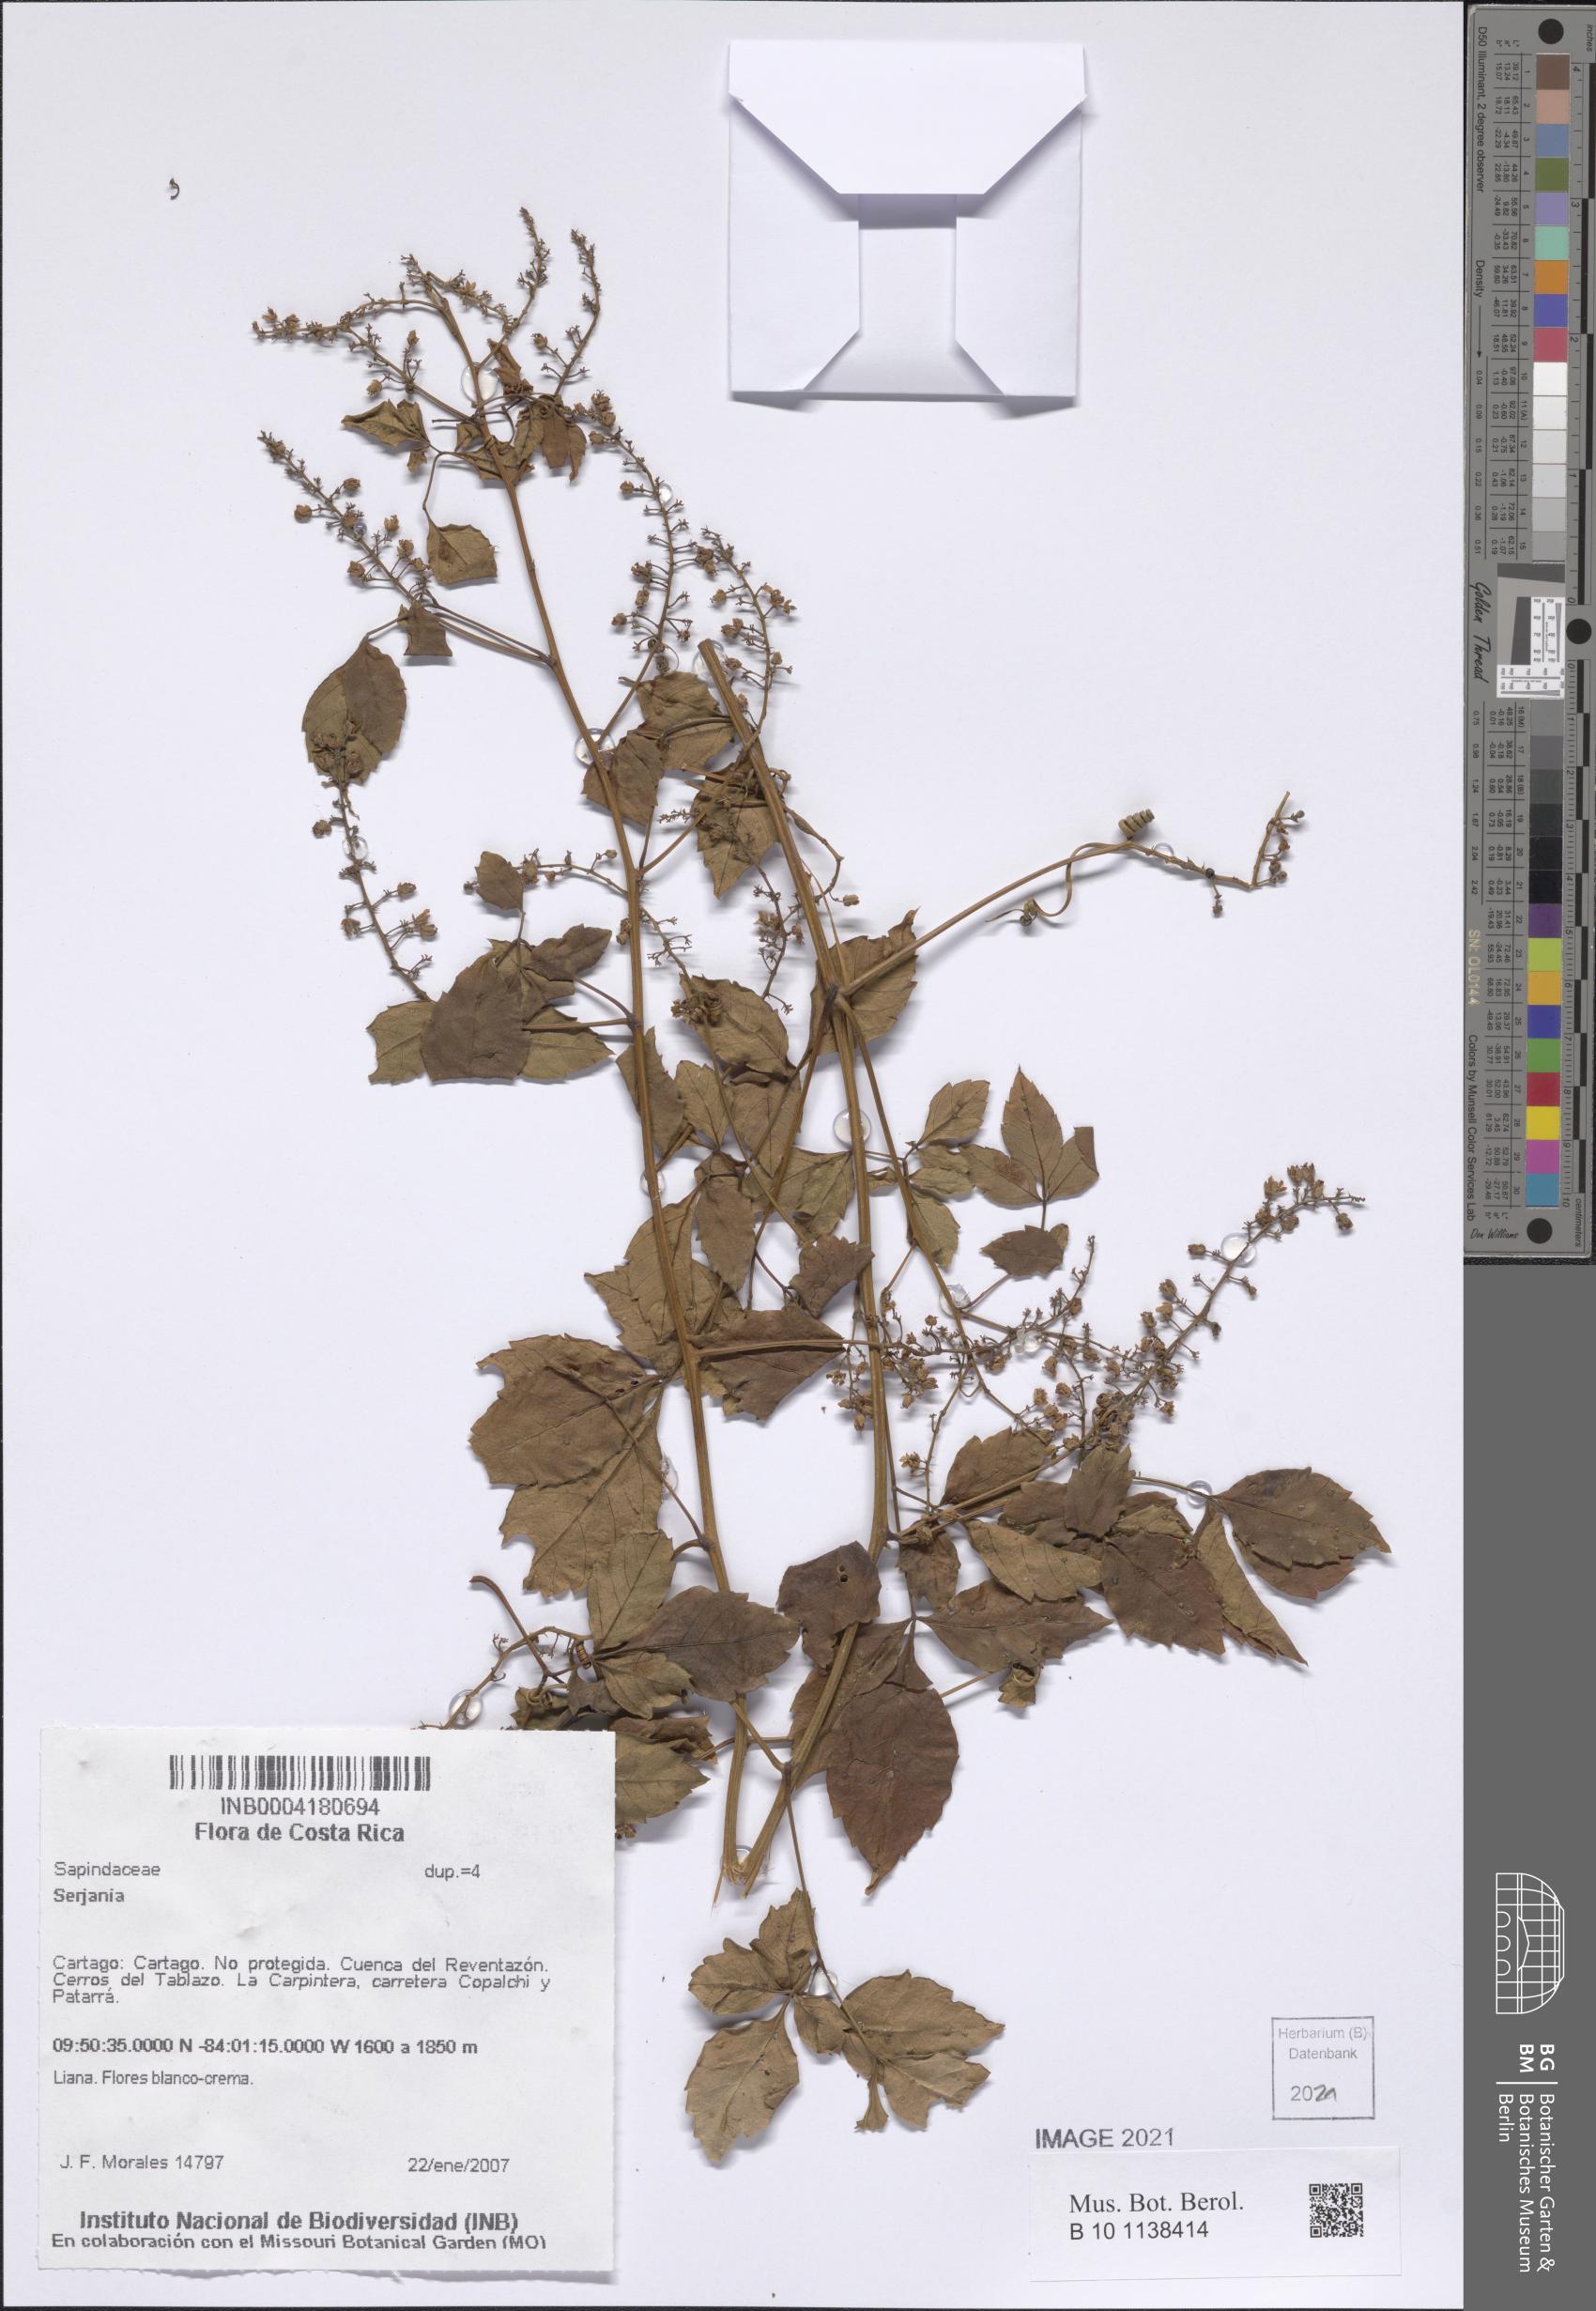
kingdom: Plantae
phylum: Tracheophyta
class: Magnoliopsida
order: Sapindales
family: Sapindaceae
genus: Serjania
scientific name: Serjania
